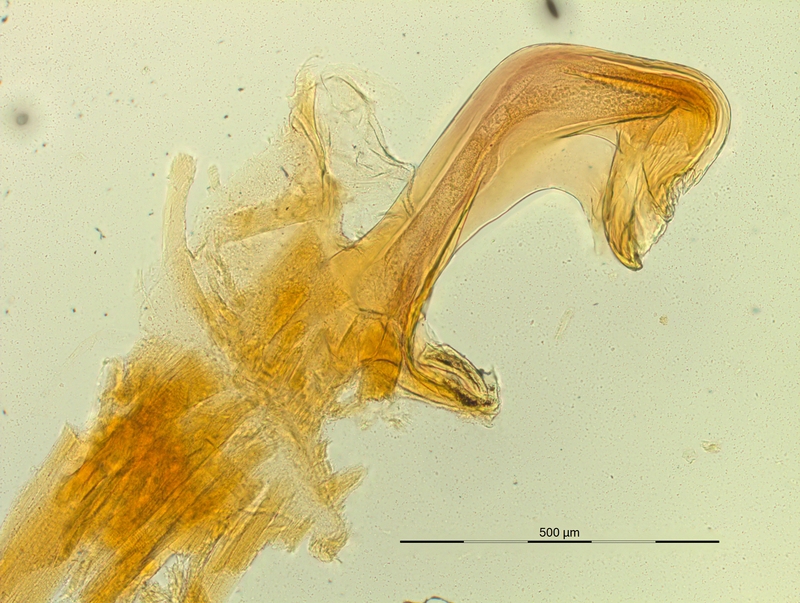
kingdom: Animalia
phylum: Arthropoda
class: Diplopoda
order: Chordeumatida
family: Craspedosomatidae
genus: Pyrgocyphosoma
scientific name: Pyrgocyphosoma ligusticum
